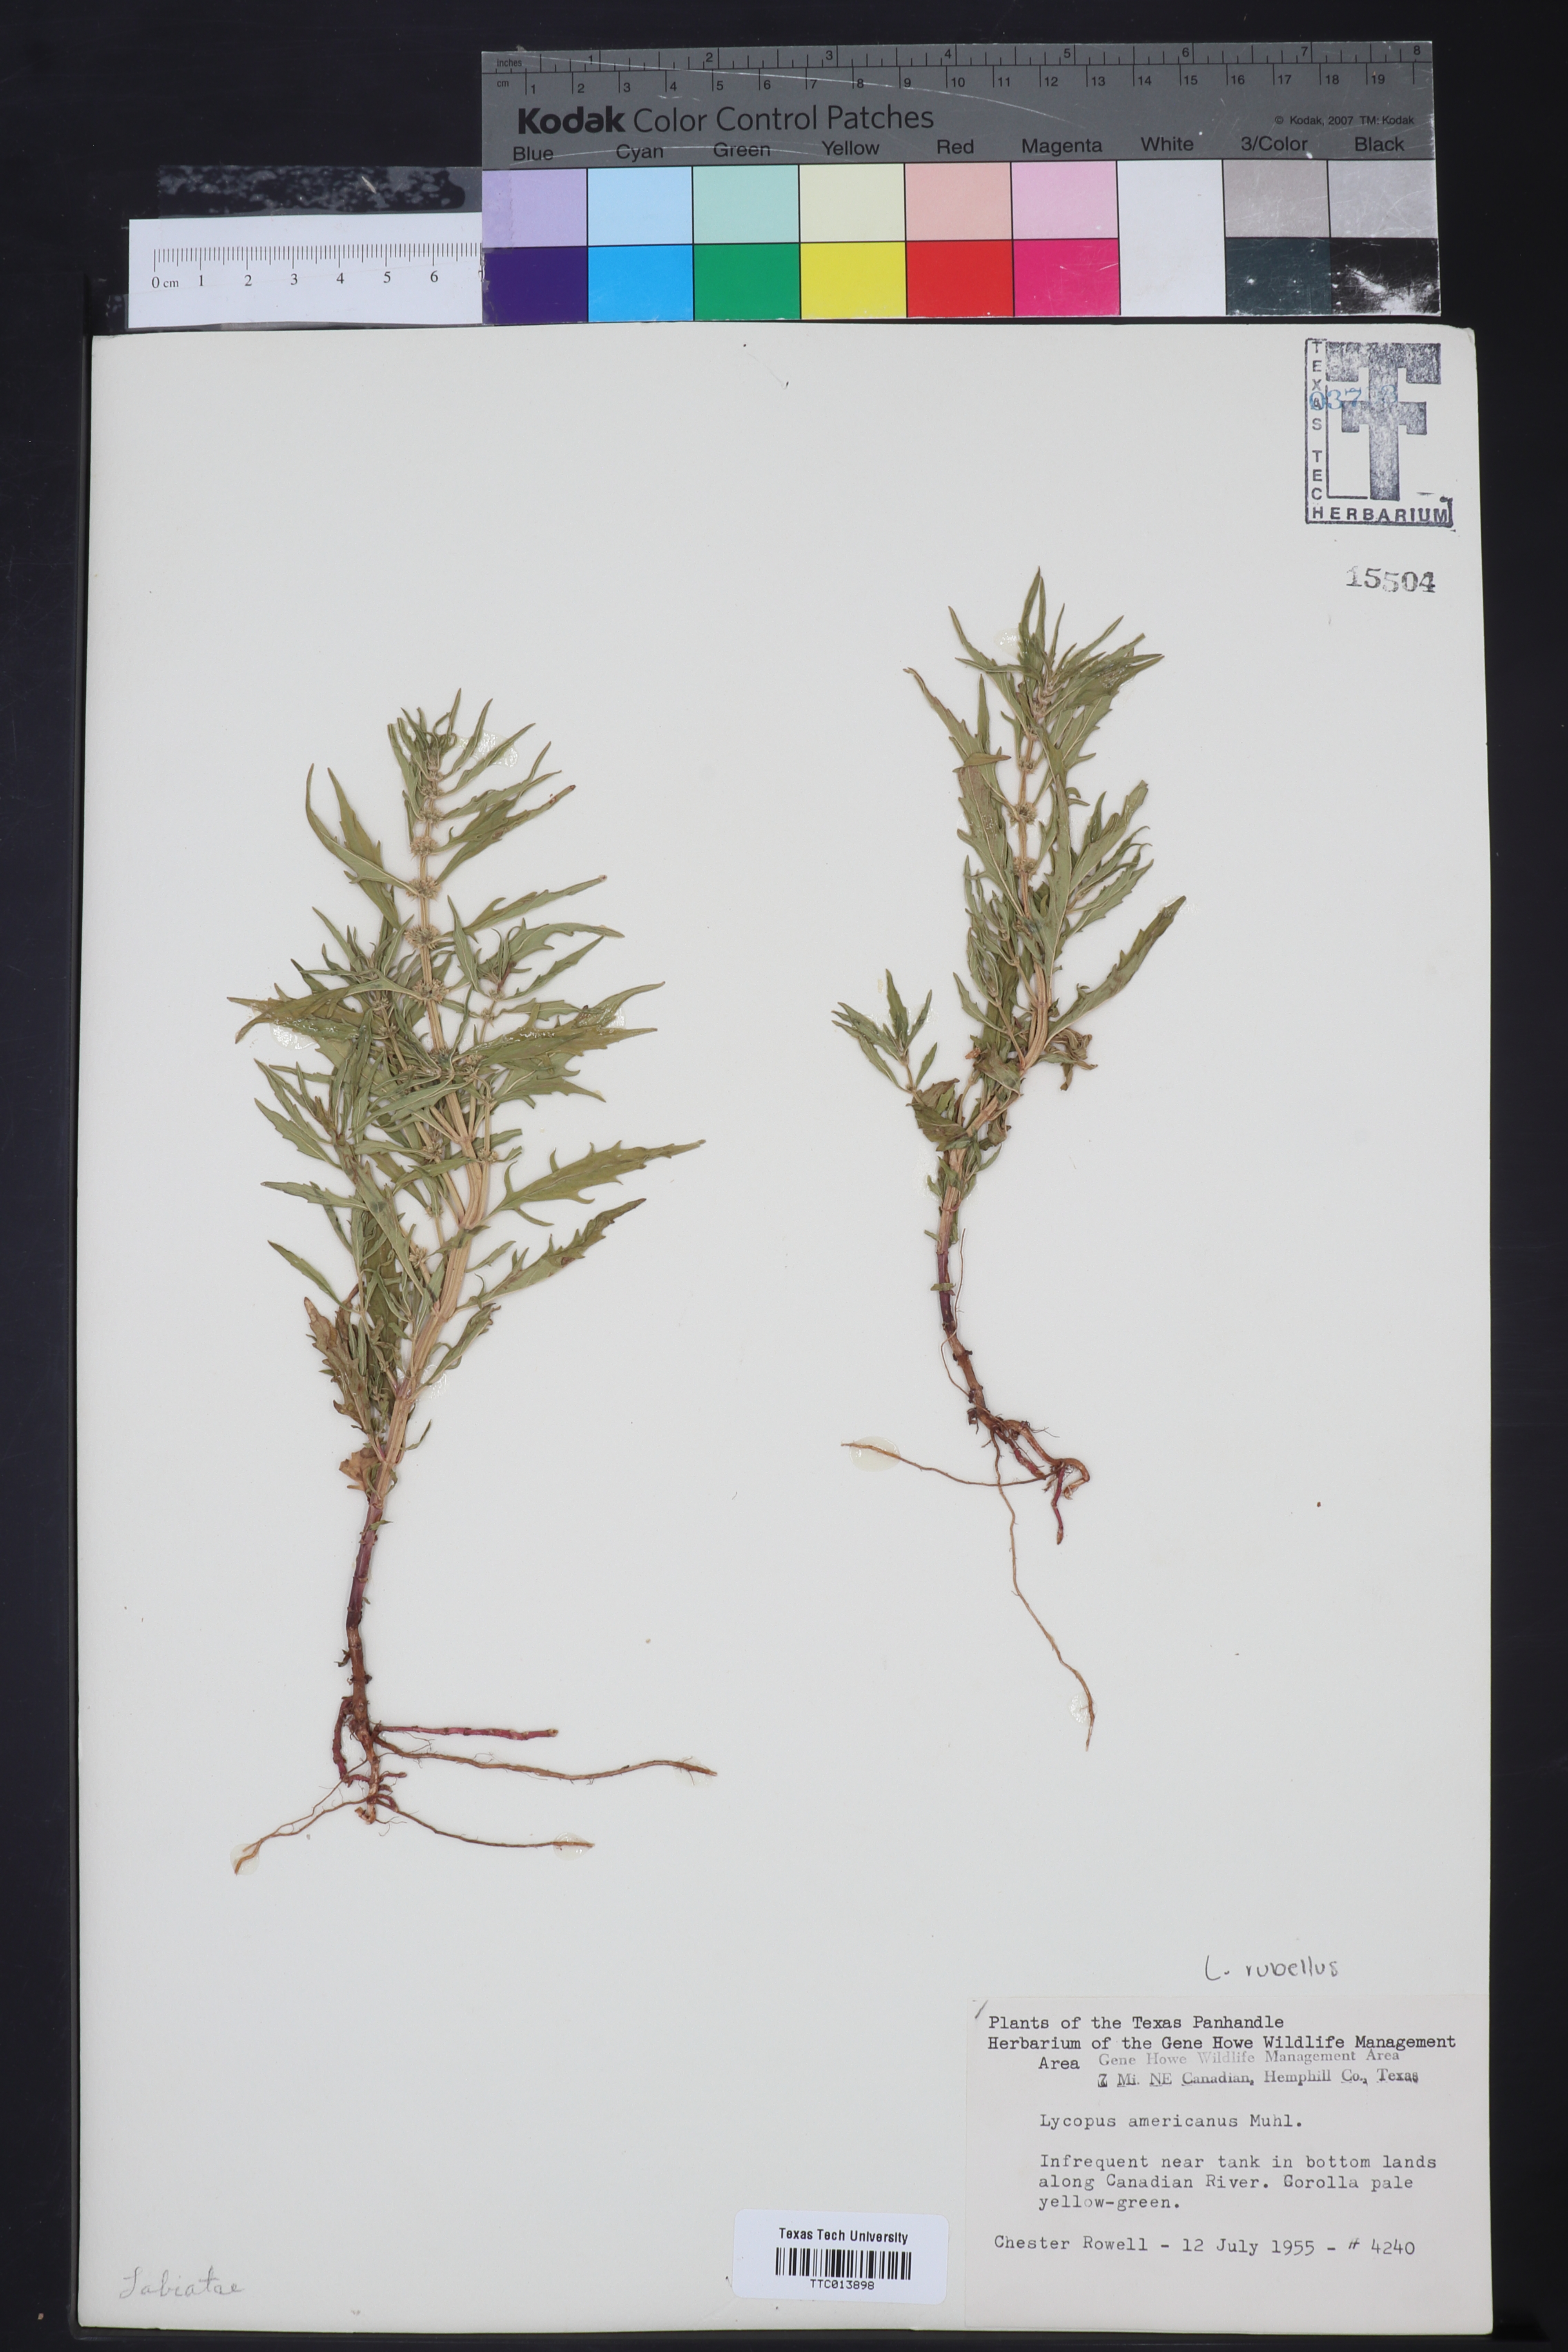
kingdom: Plantae
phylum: Tracheophyta
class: Magnoliopsida
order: Lamiales
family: Lamiaceae
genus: Lycopus
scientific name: Lycopus americanus
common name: American bugleweed
